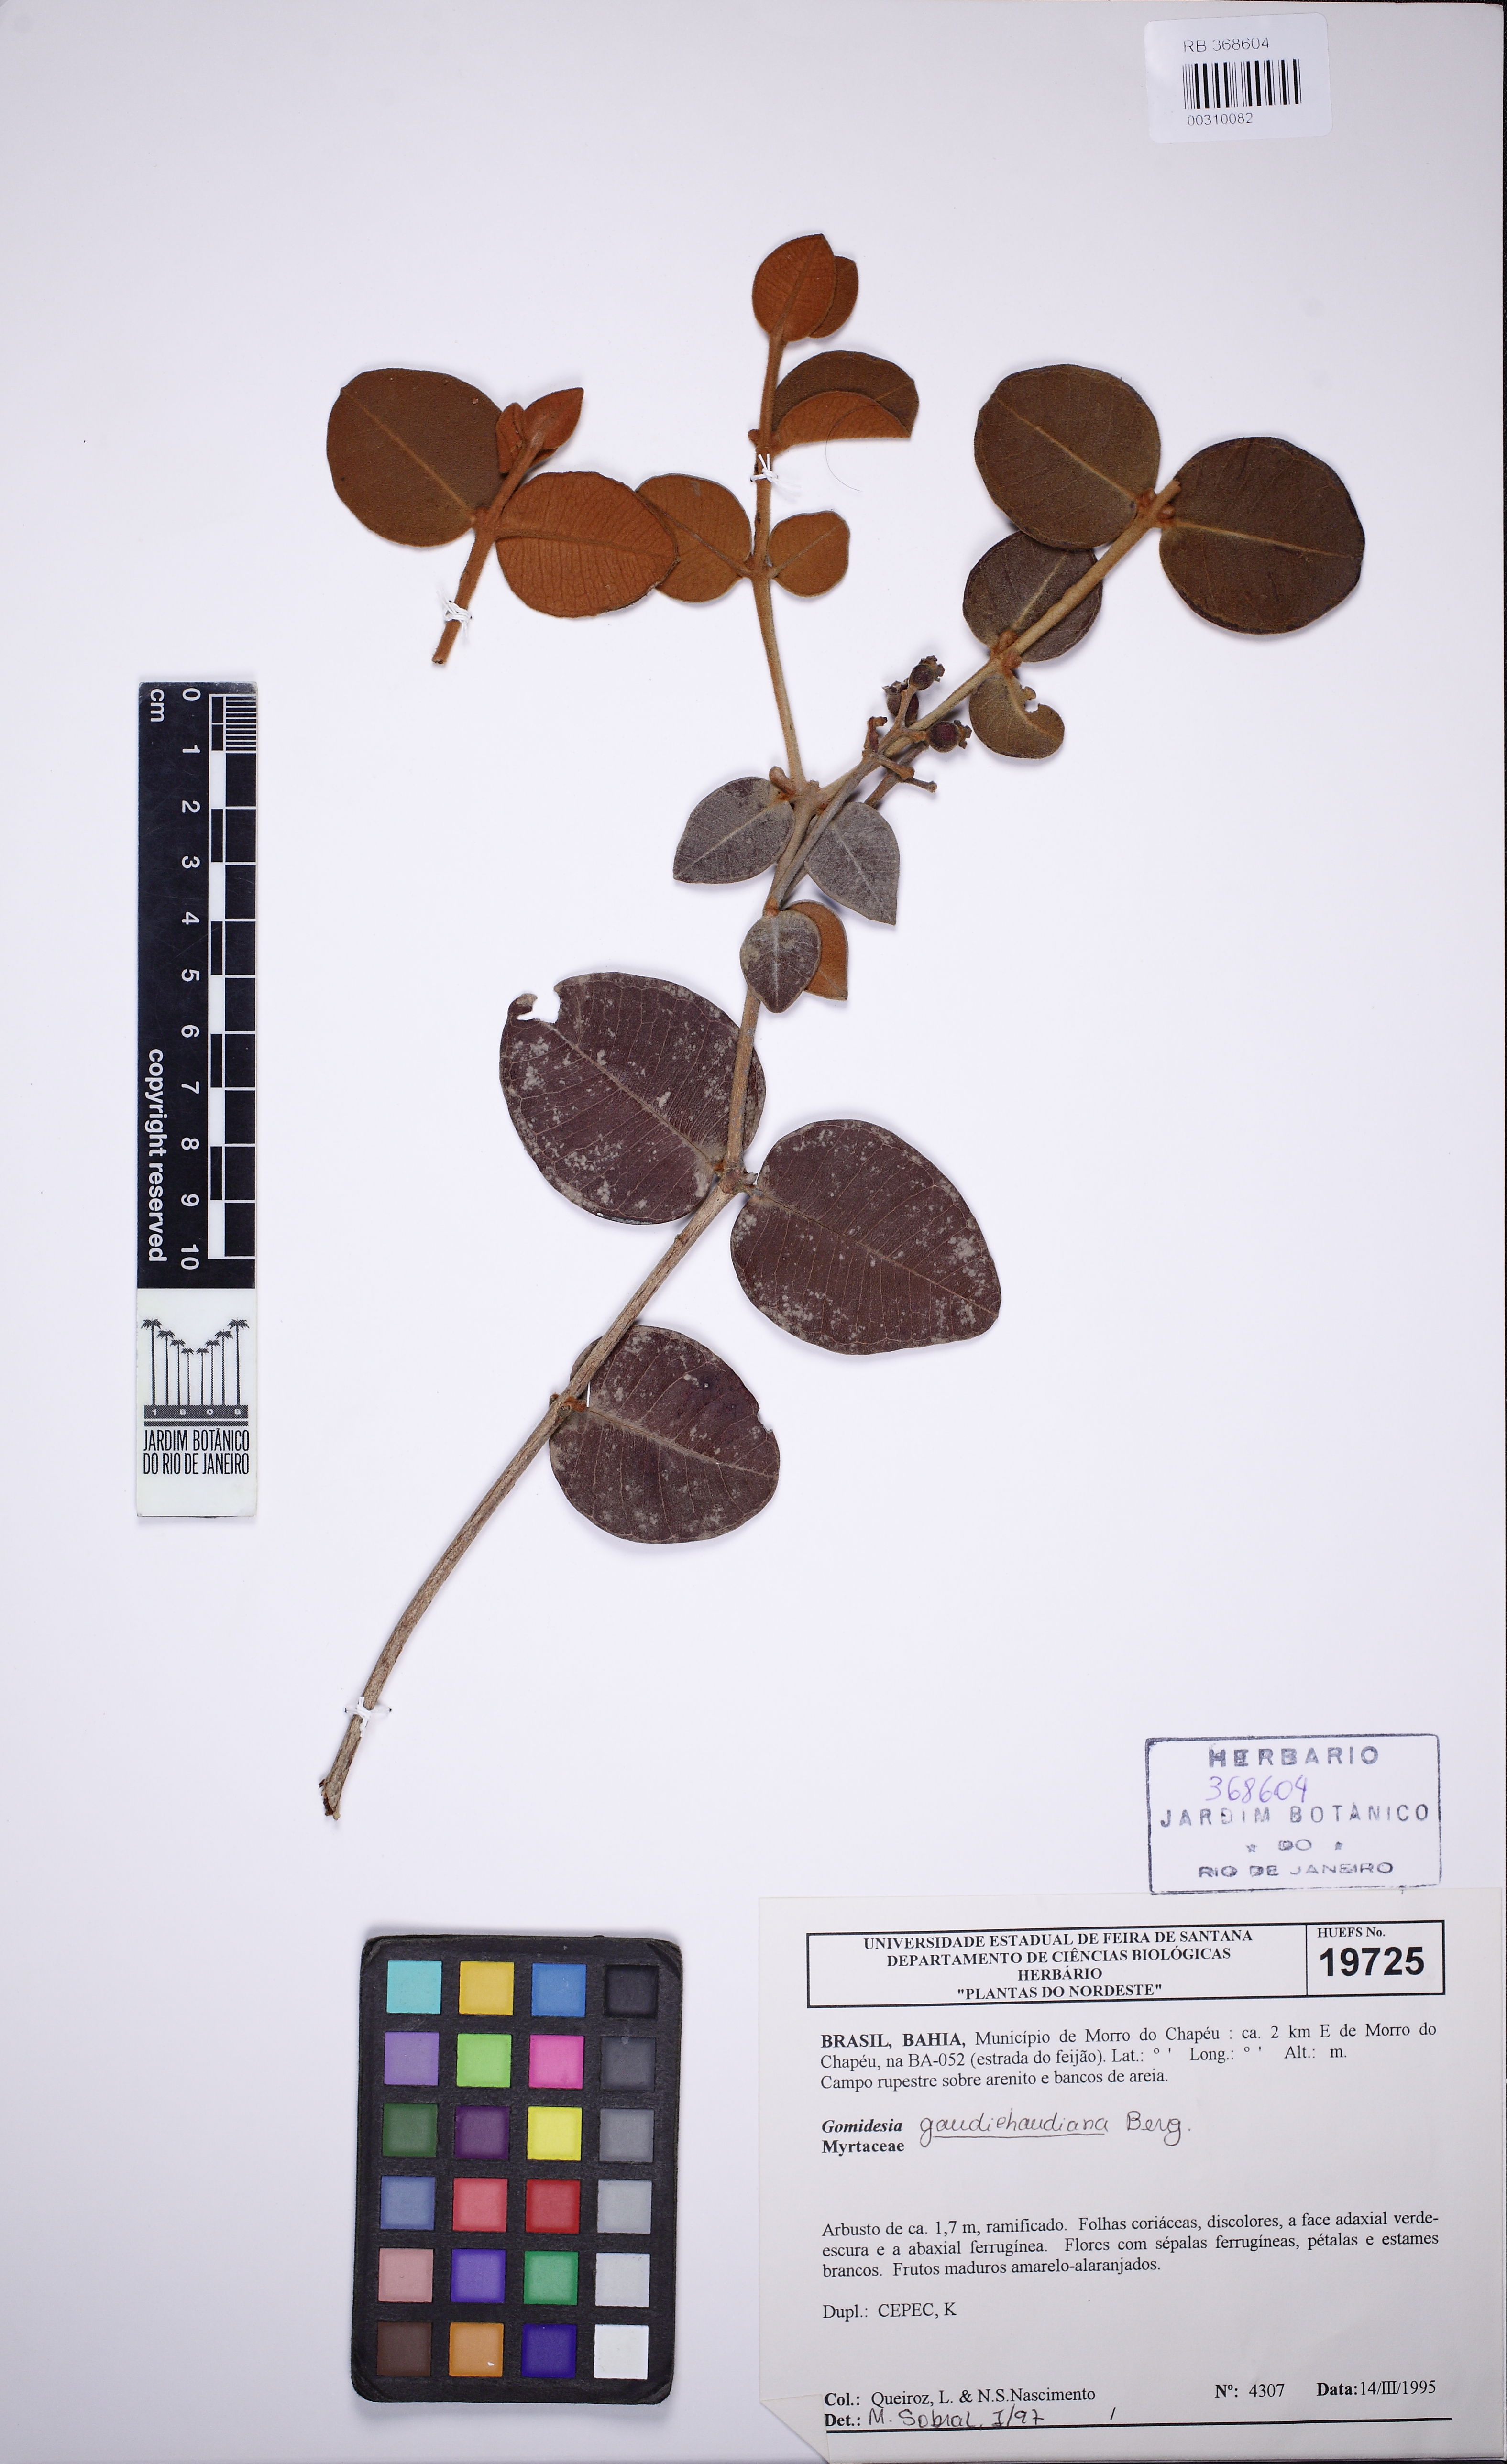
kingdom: Plantae
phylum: Tracheophyta
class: Magnoliopsida
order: Myrtales
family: Myrtaceae
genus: Myrcia
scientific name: Myrcia pseudovenulosa
